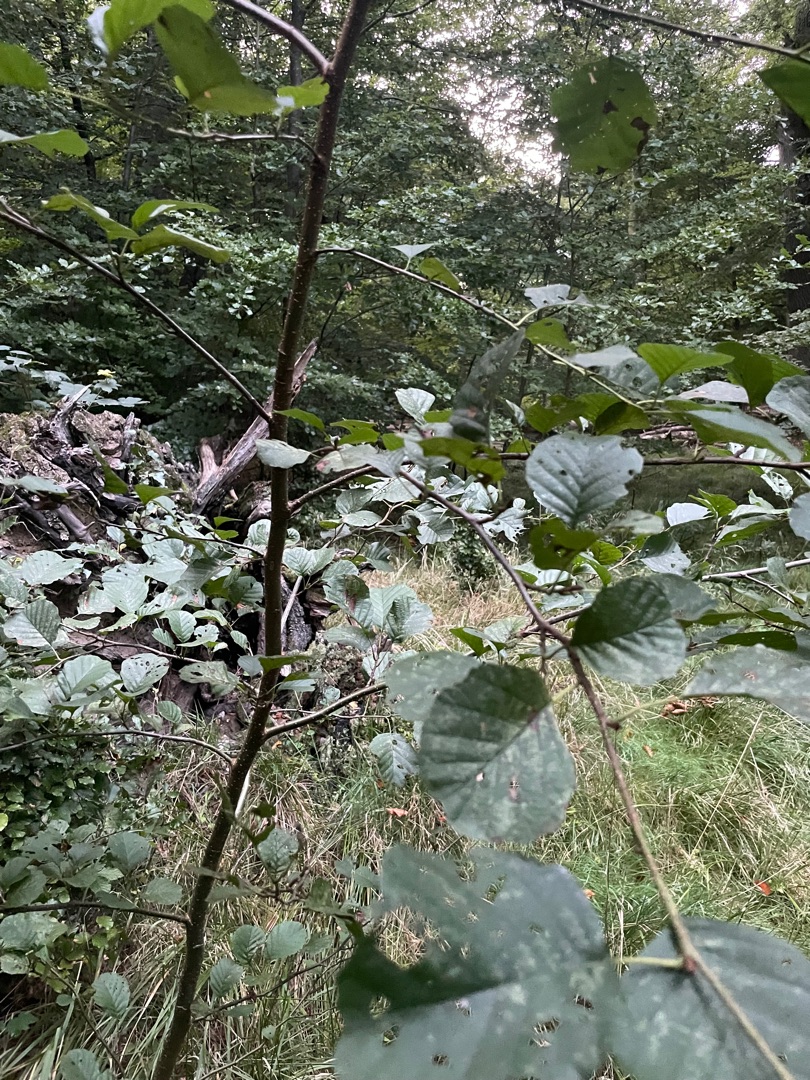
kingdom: Plantae
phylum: Tracheophyta
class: Magnoliopsida
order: Fagales
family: Betulaceae
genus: Alnus
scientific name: Alnus glutinosa
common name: Rød-el
